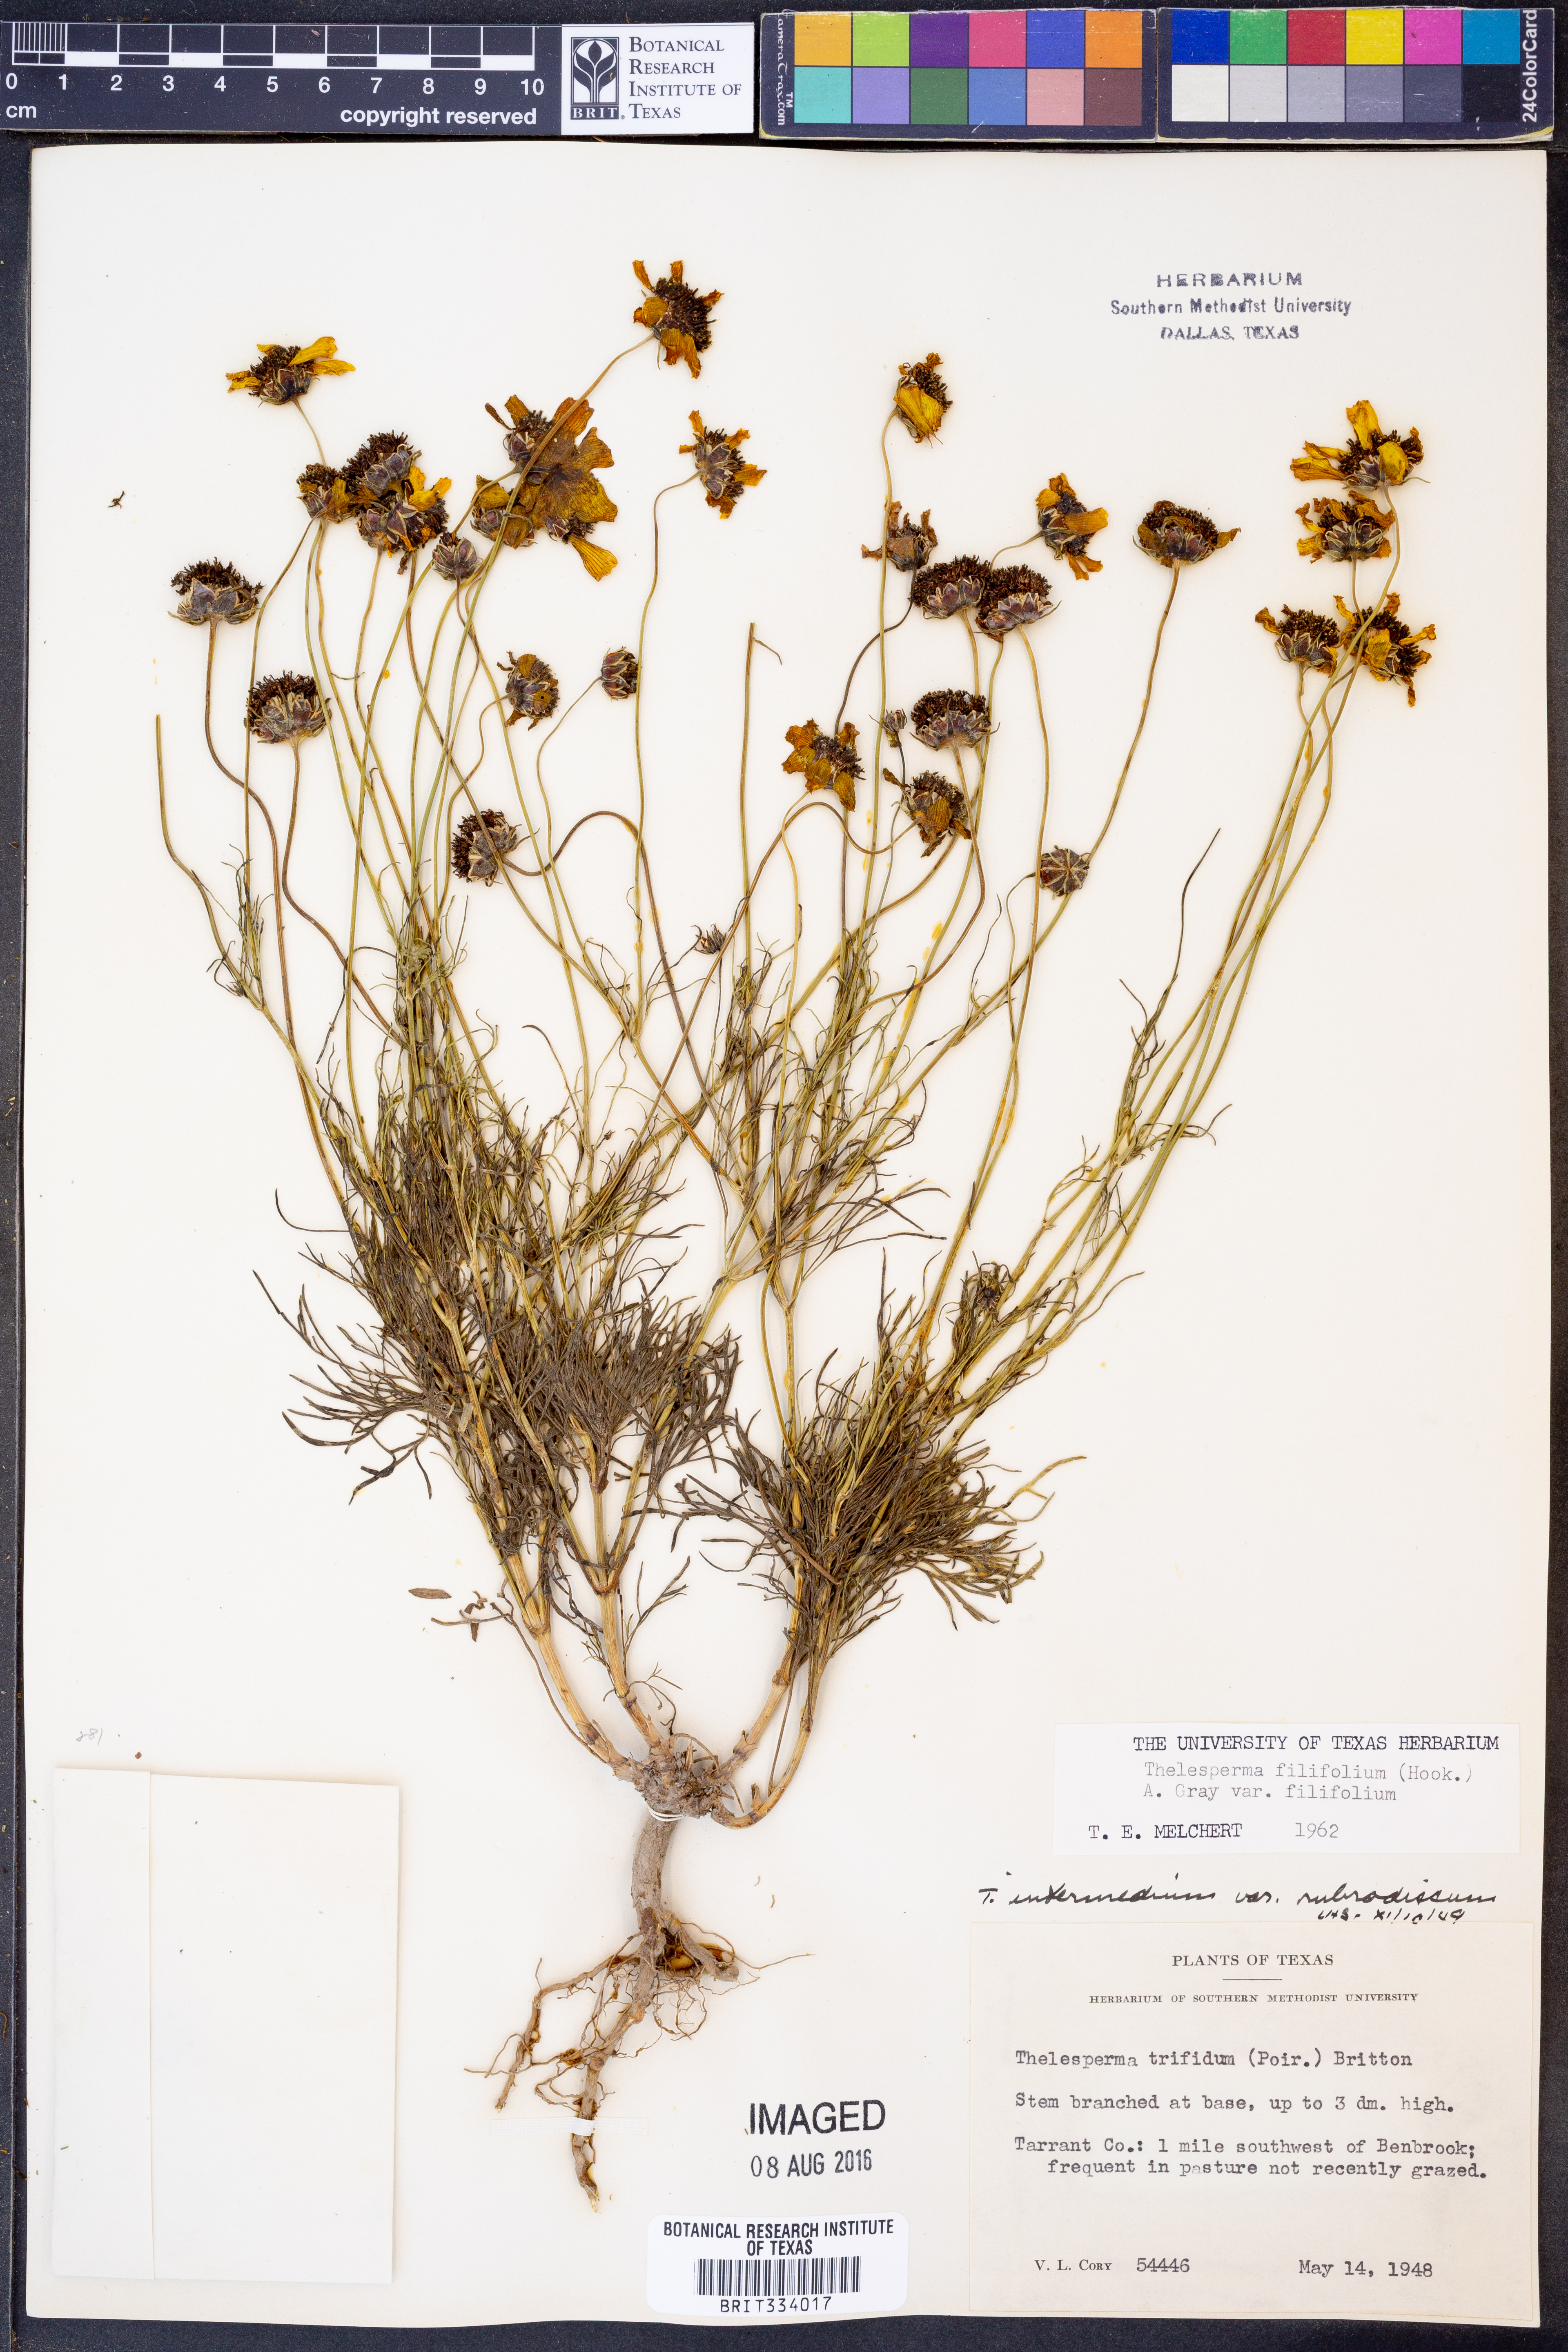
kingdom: Plantae
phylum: Tracheophyta
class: Magnoliopsida
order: Asterales
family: Asteraceae
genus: Thelesperma
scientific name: Thelesperma filifolium
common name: Stiff greenthread
